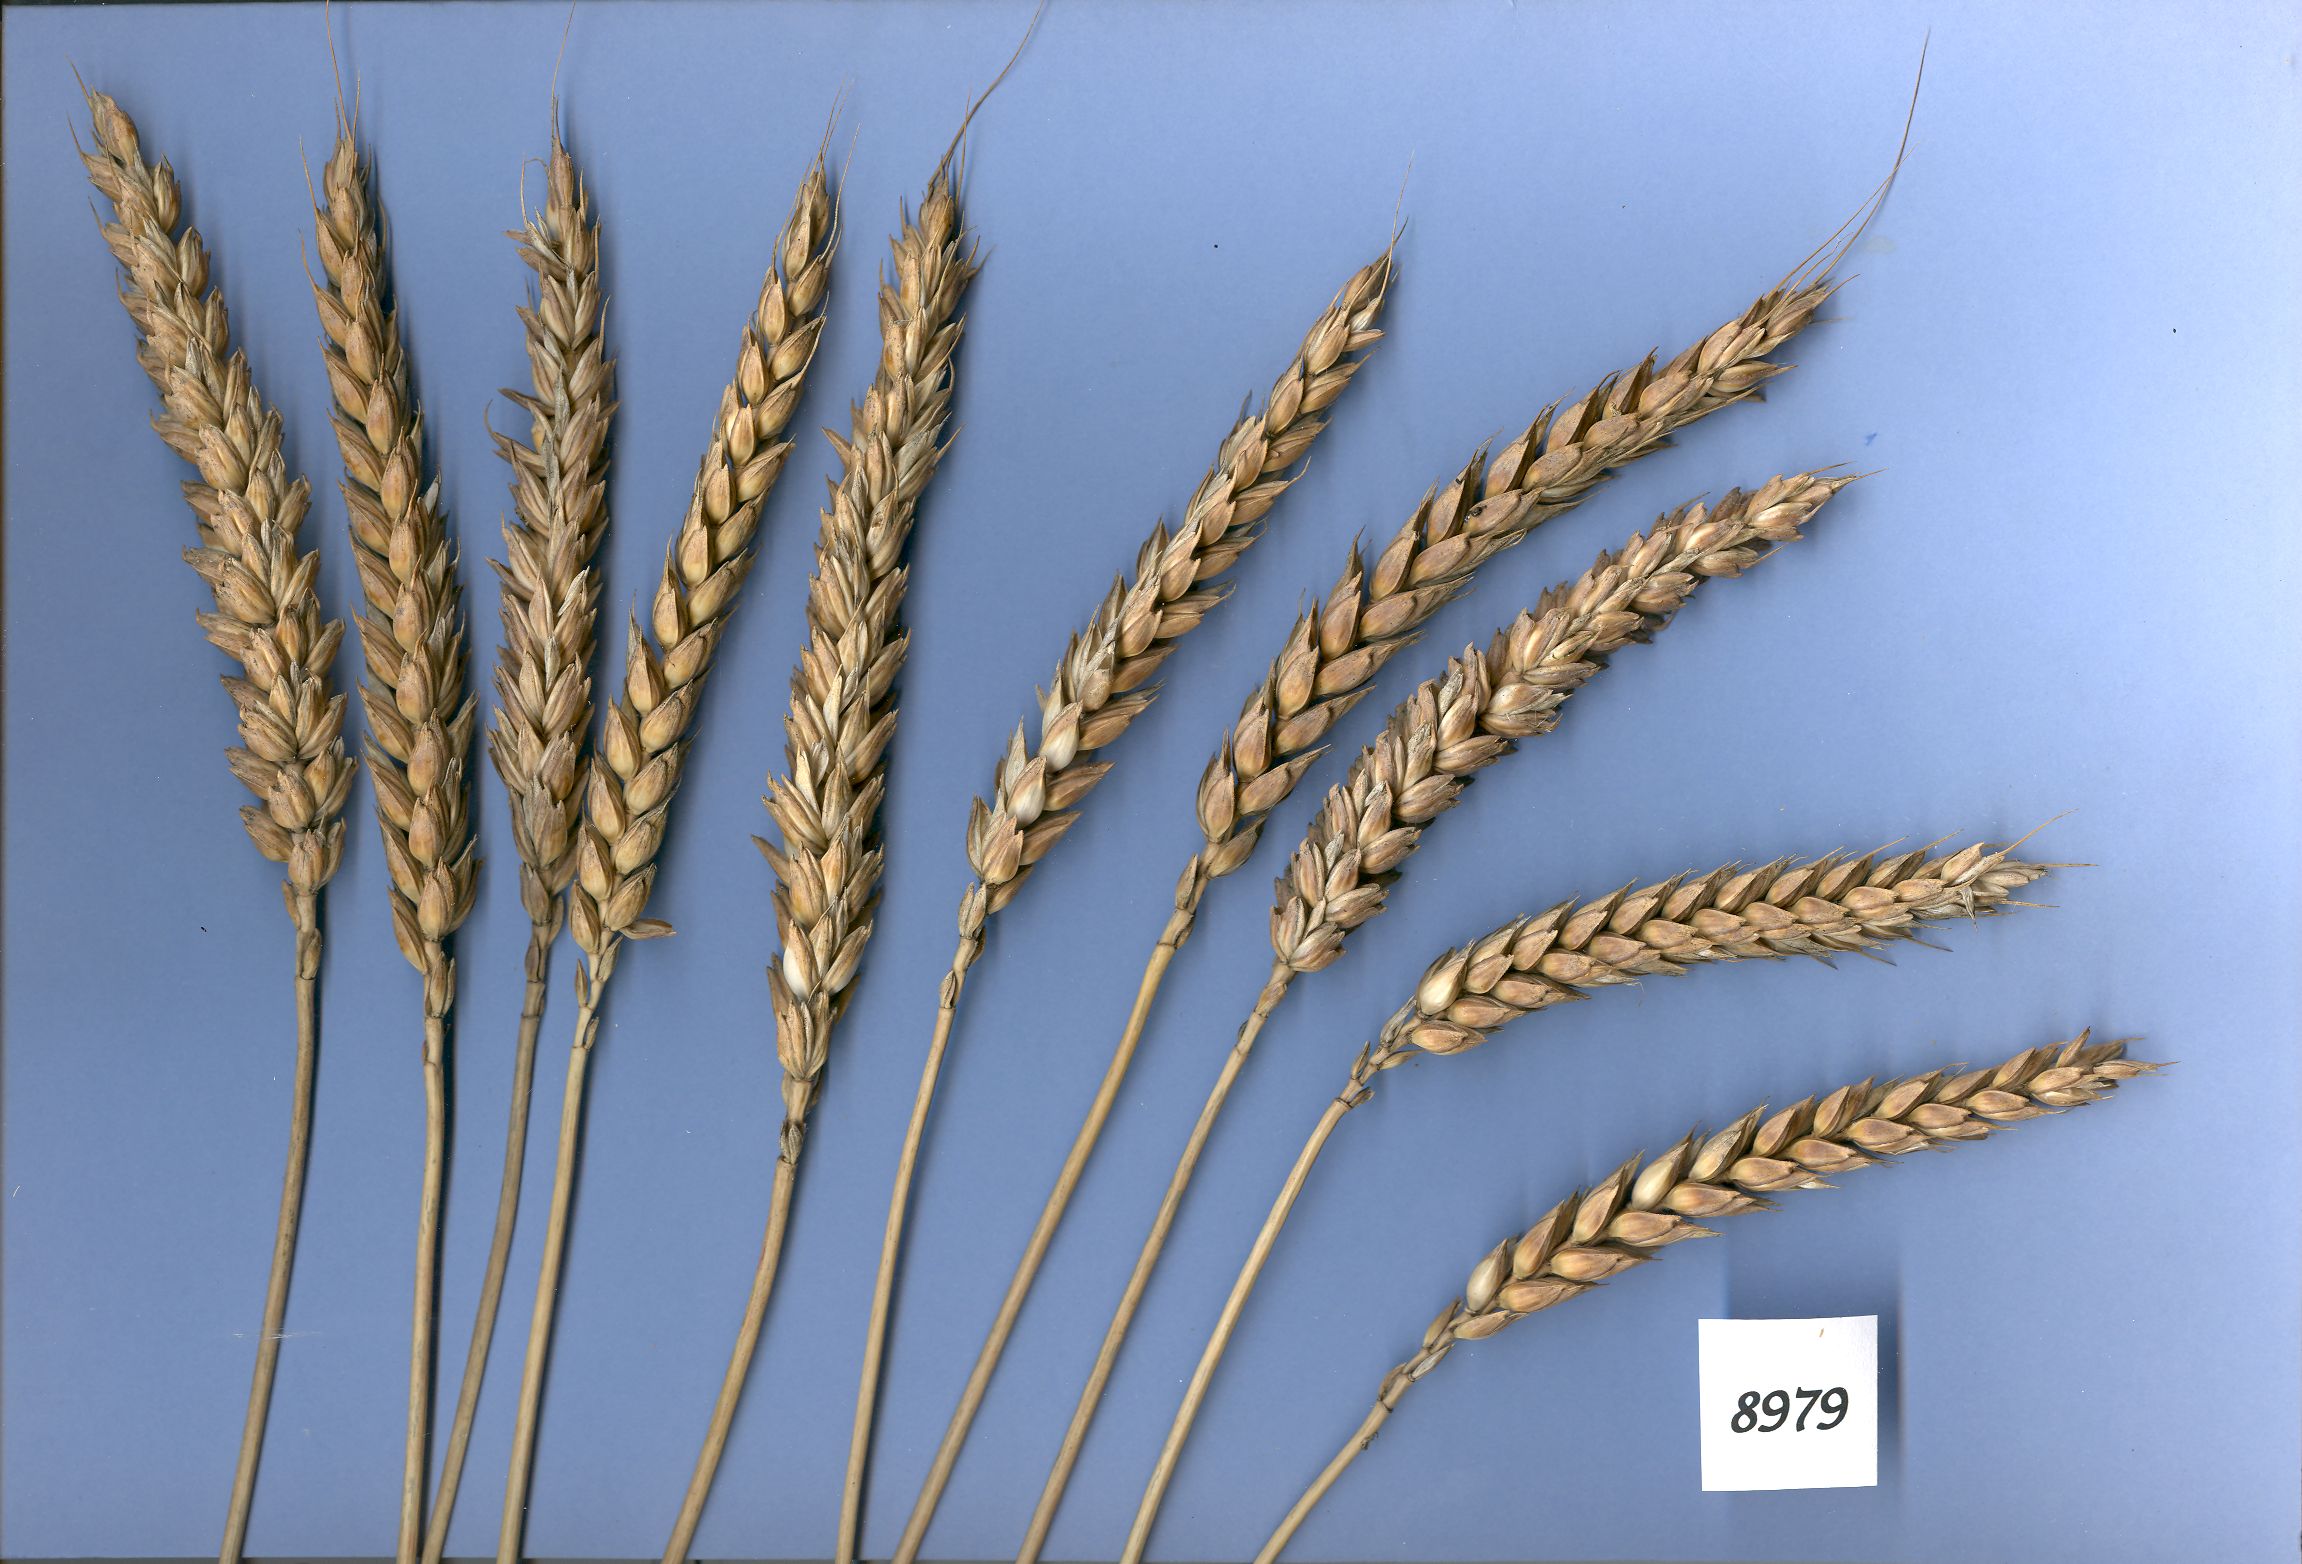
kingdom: Plantae
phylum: Tracheophyta
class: Liliopsida
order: Poales
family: Poaceae
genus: Triticum
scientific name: Triticum aestivum
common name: Common wheat
